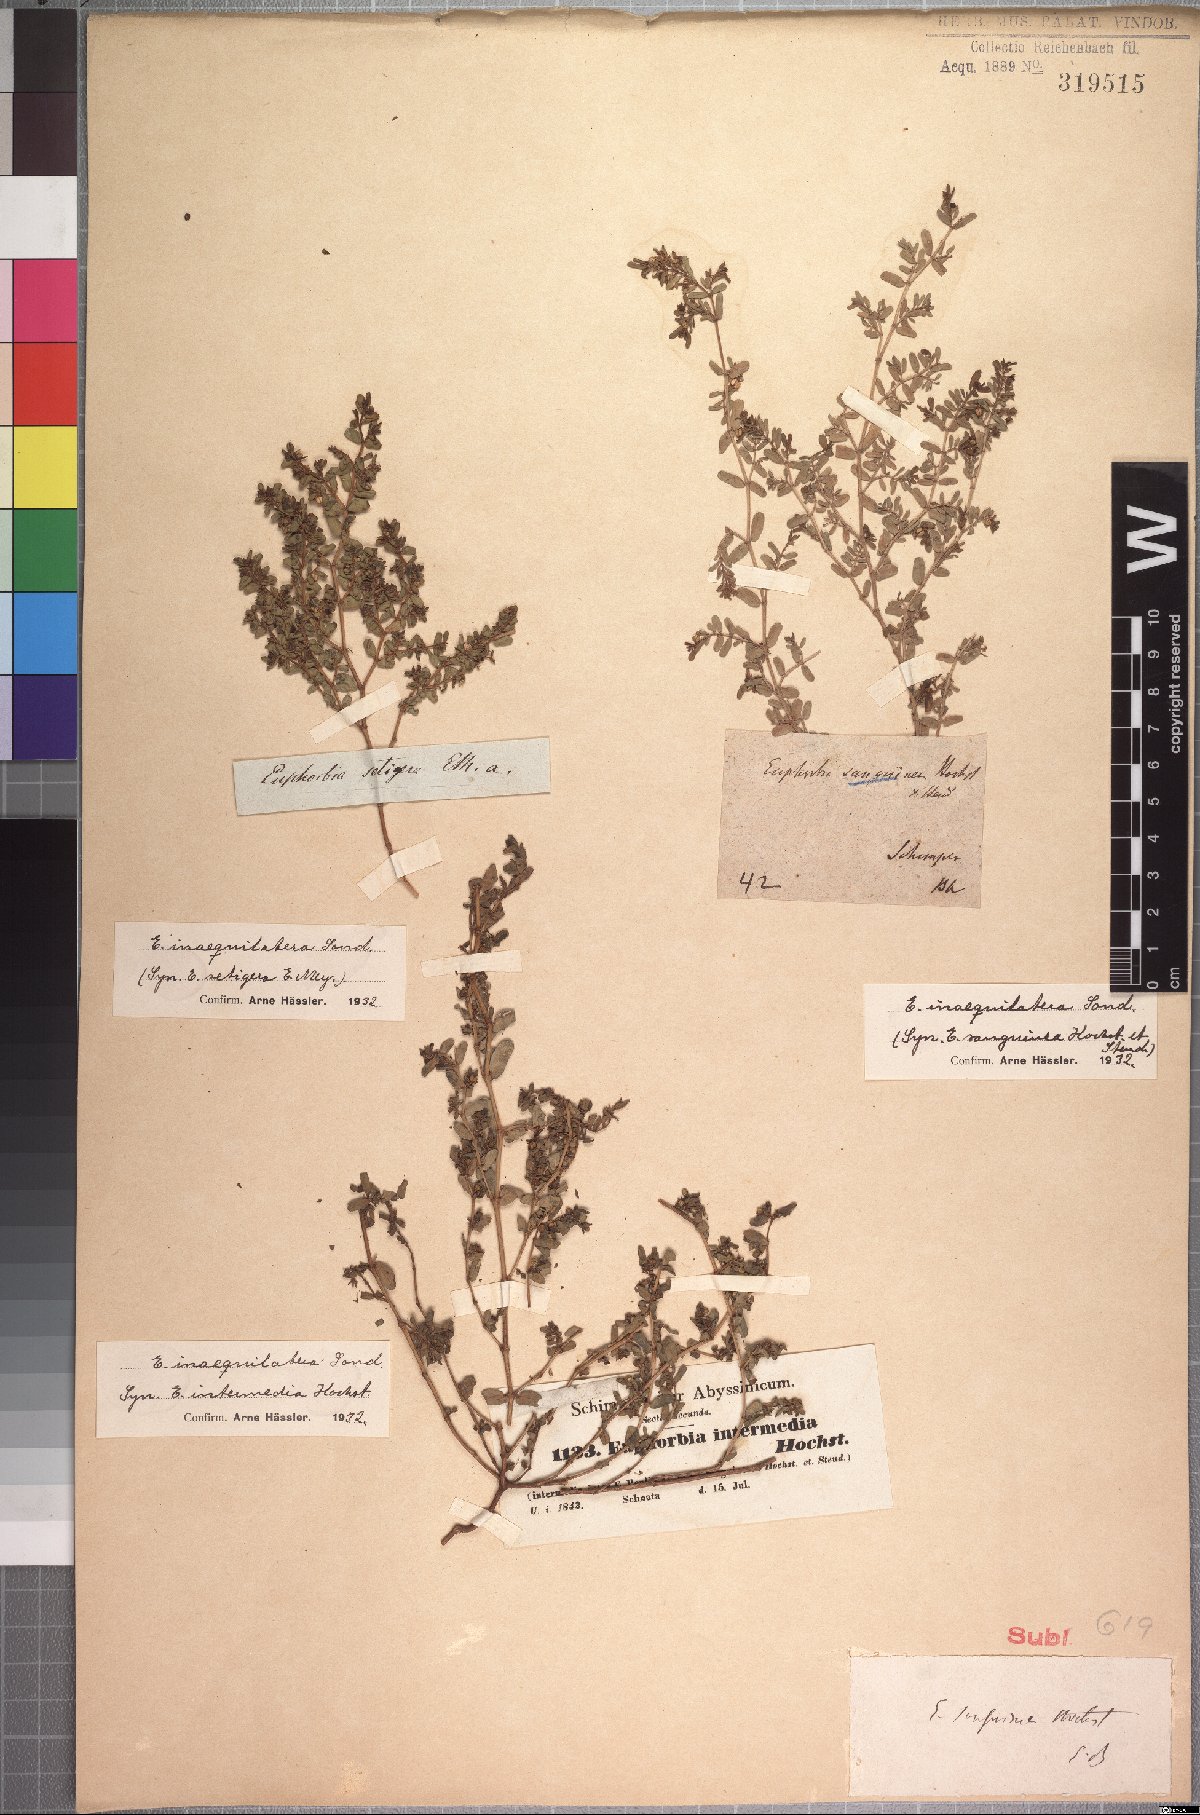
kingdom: Plantae
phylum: Tracheophyta
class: Magnoliopsida
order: Malpighiales
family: Euphorbiaceae
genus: Euphorbia
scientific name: Euphorbia inaequilatera
